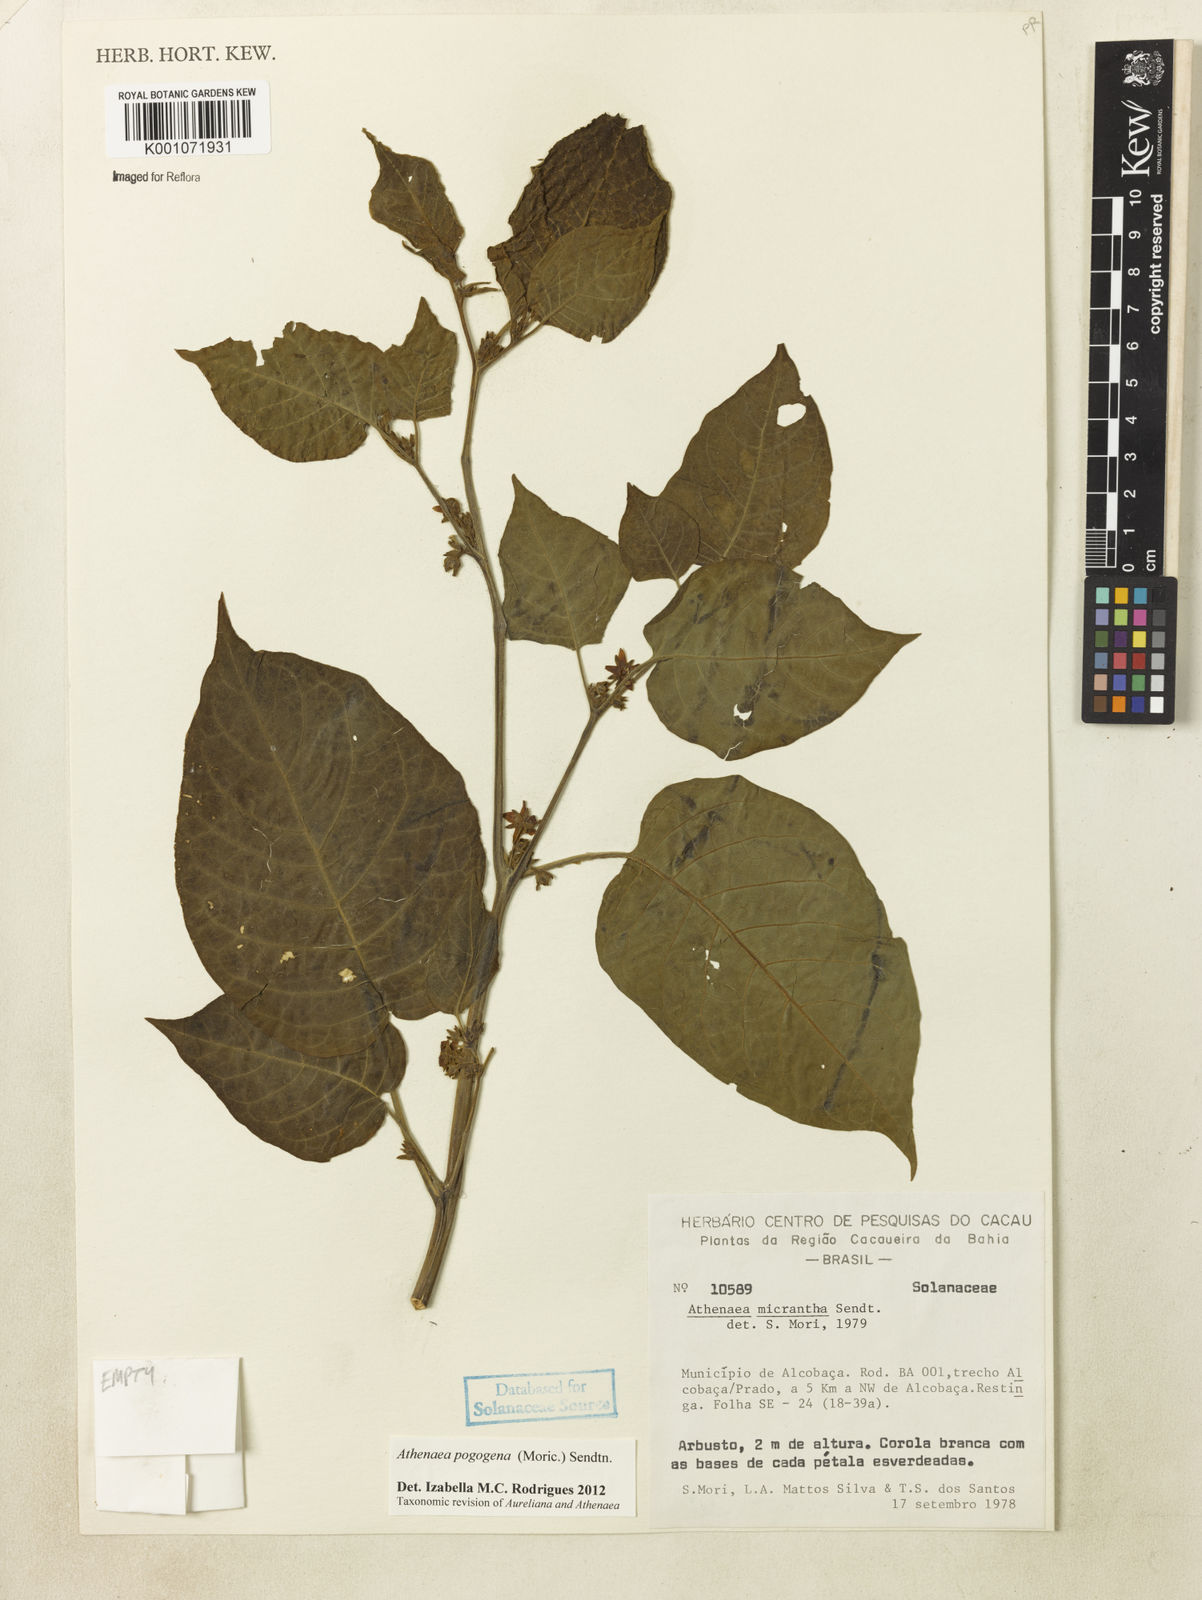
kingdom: Plantae
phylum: Tracheophyta
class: Magnoliopsida
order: Solanales
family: Solanaceae
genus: Athenaea
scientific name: Athenaea pogogena
